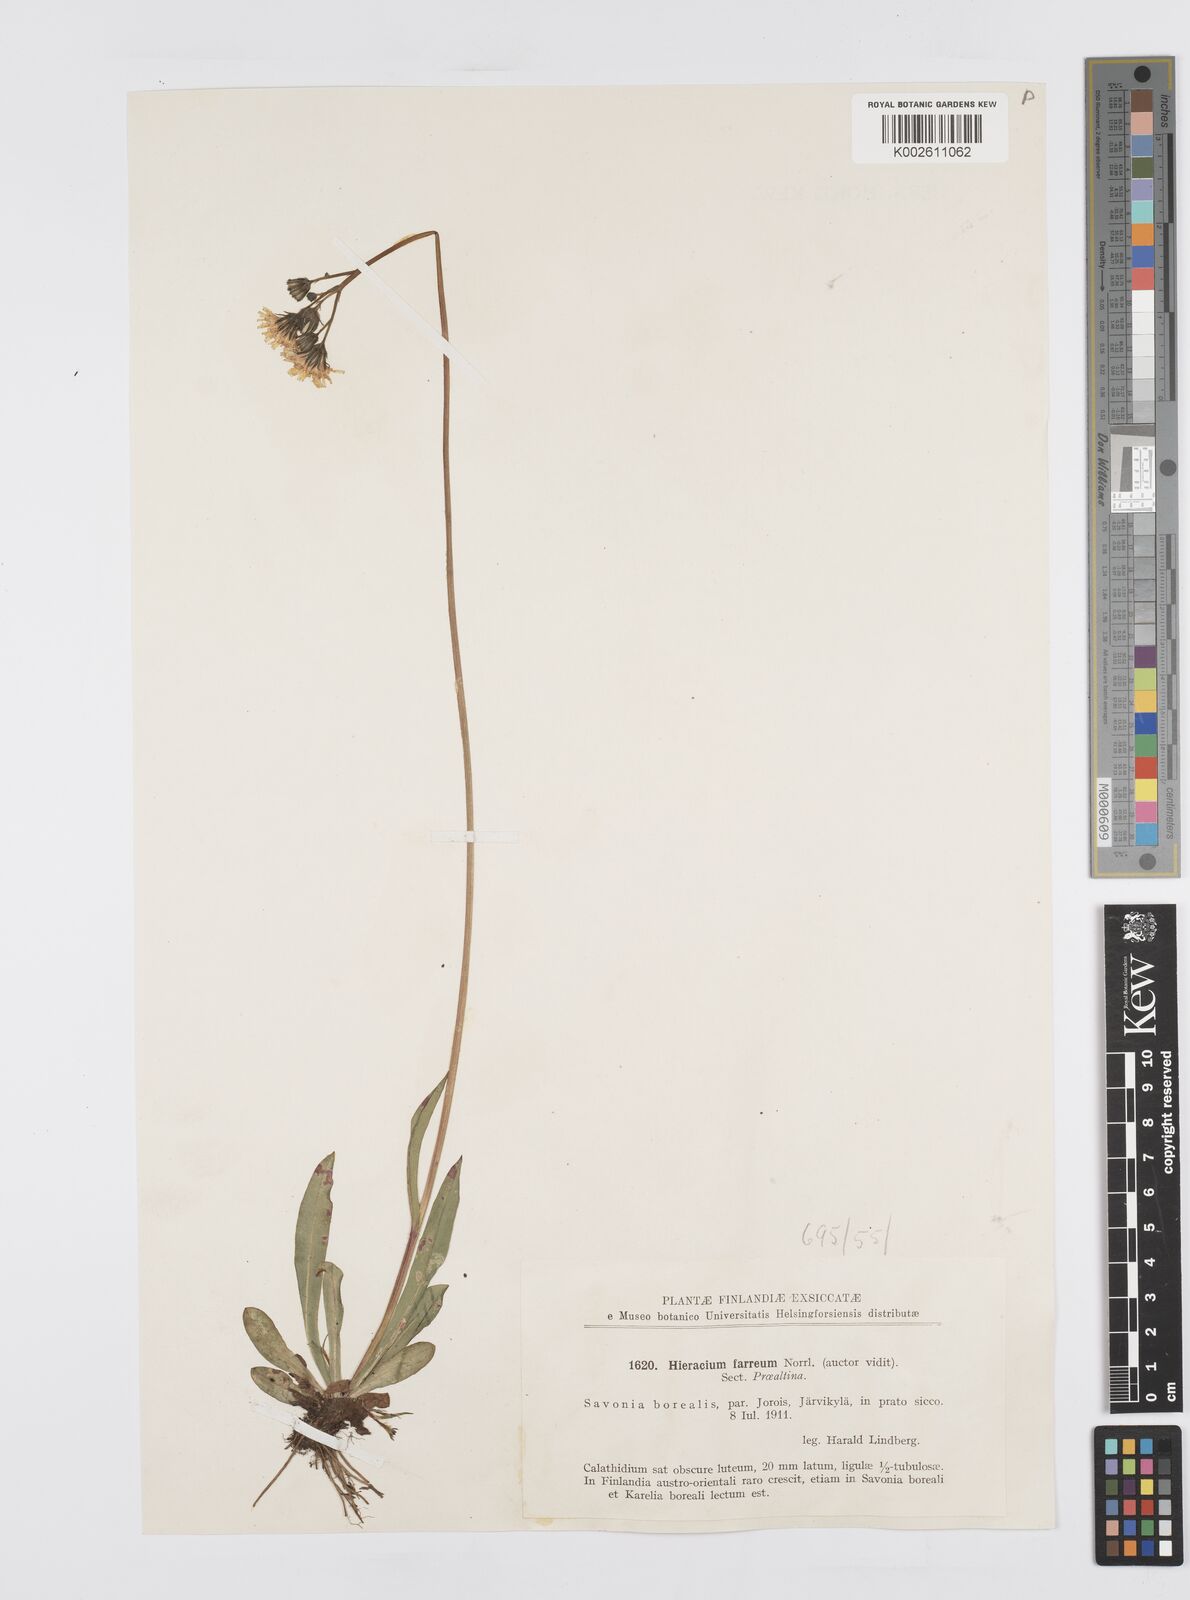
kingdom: Plantae
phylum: Tracheophyta
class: Magnoliopsida
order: Asterales
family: Asteraceae
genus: Hieracium
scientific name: Hieracium
